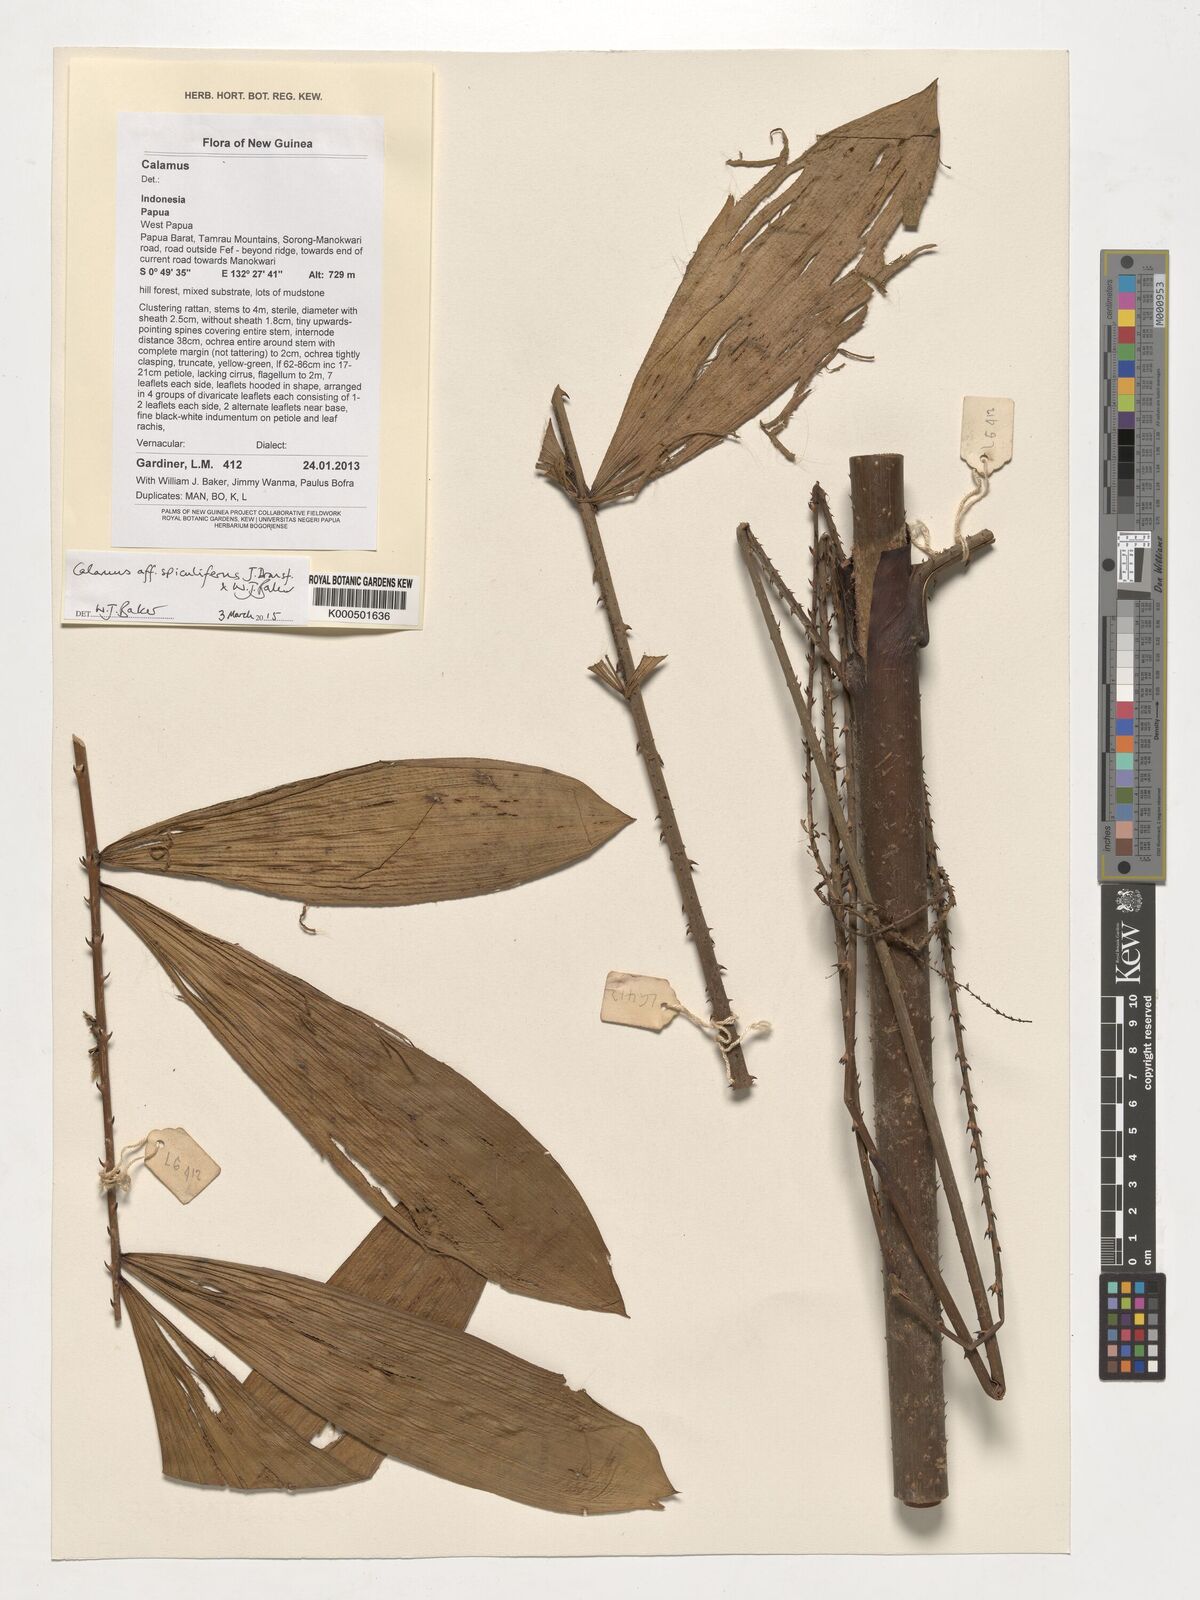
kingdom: Plantae
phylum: Tracheophyta
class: Liliopsida
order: Arecales
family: Arecaceae
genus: Calamus
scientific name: Calamus spiculifer
